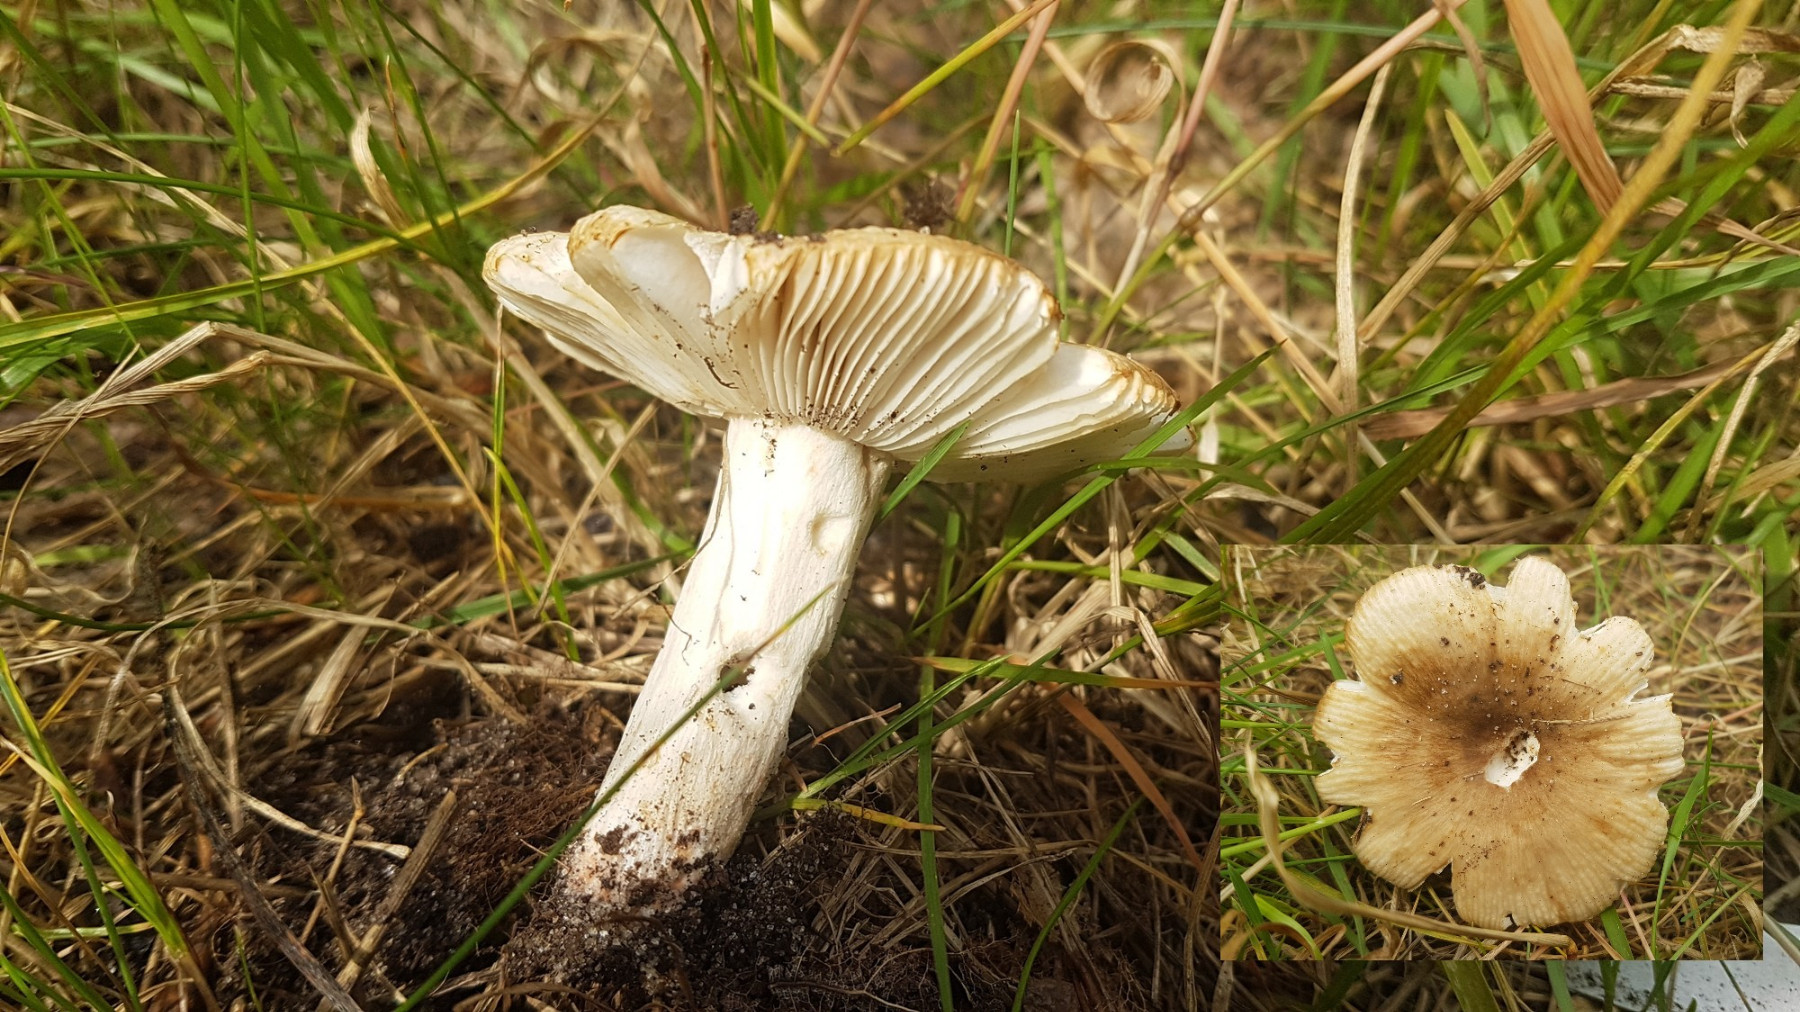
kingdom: Fungi
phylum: Basidiomycota
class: Agaricomycetes
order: Russulales
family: Russulaceae
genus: Russula
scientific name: Russula recondita
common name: mild kam-skørhat
